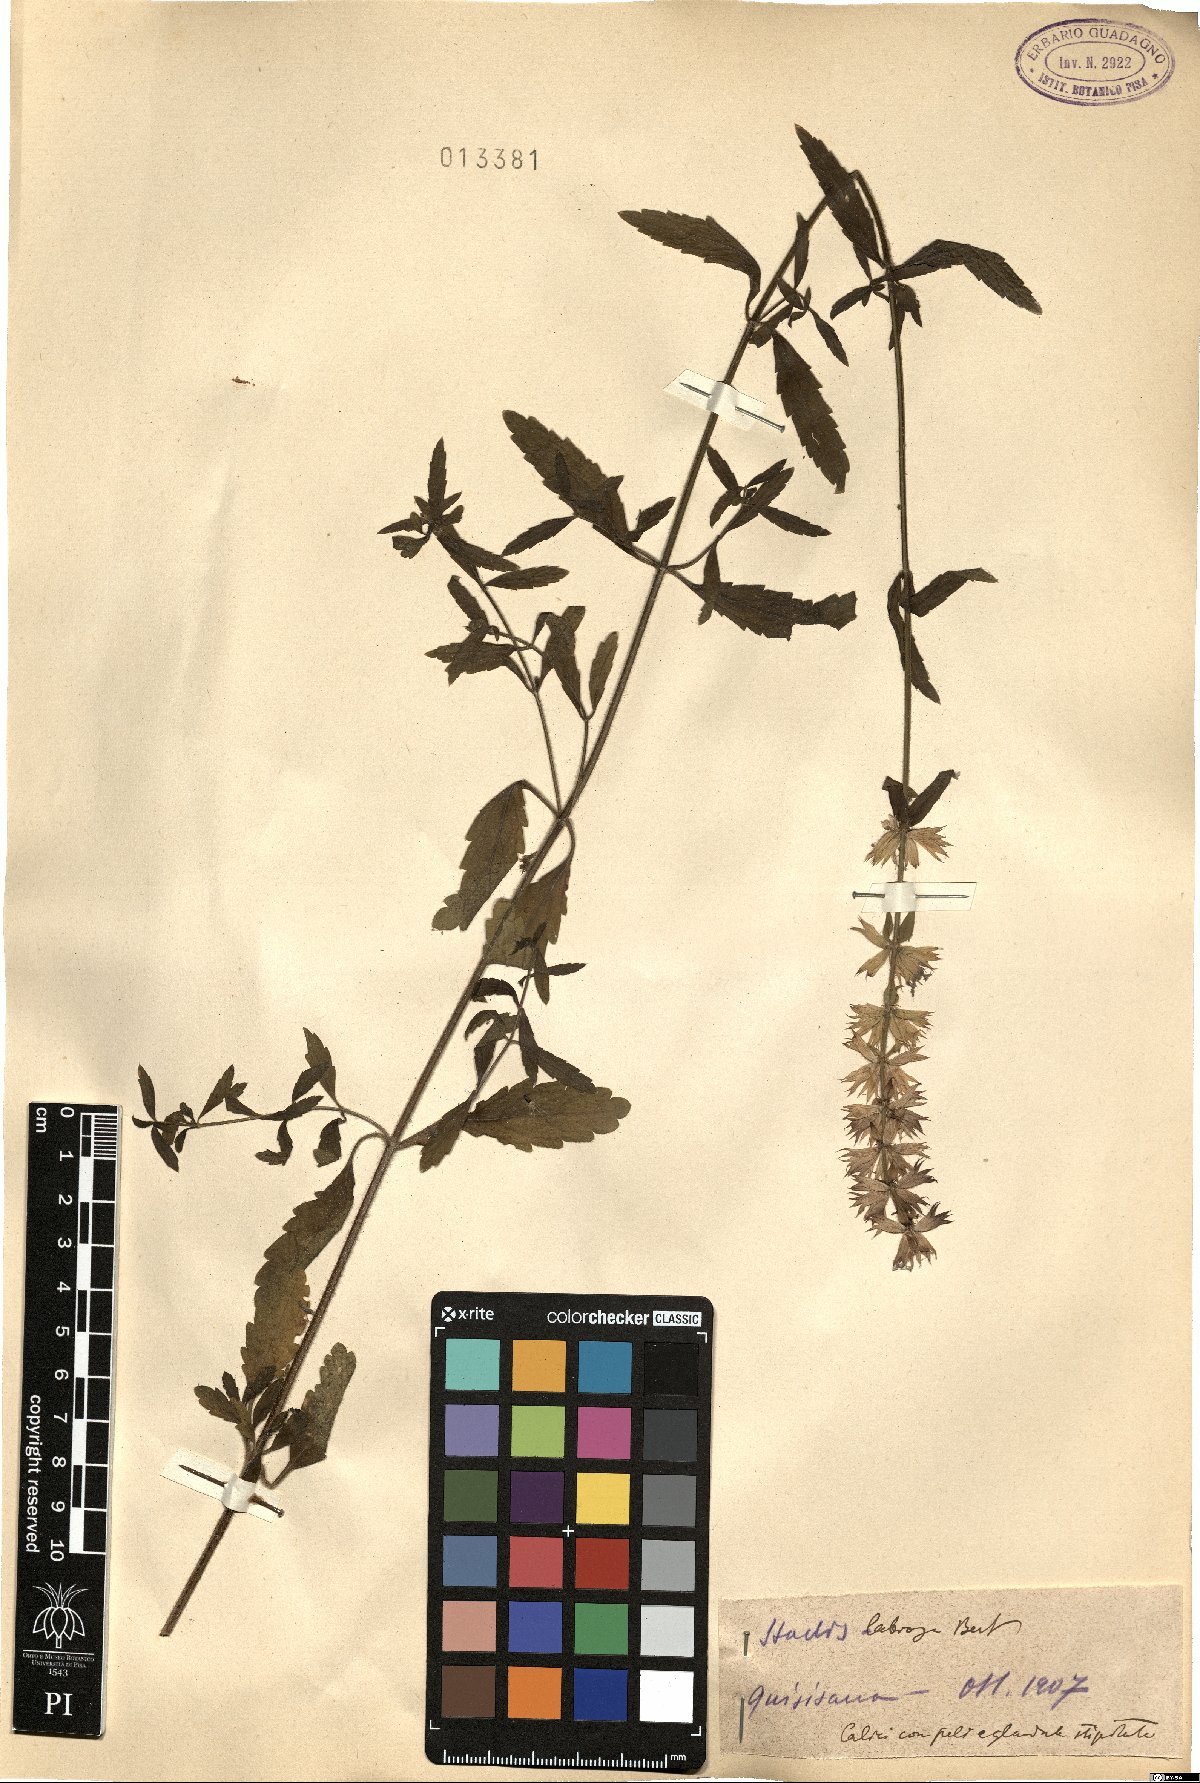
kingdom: Plantae
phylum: Tracheophyta
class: Magnoliopsida
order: Lamiales
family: Lamiaceae
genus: Stachys
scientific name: Stachys recta
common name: Perennial yellow-woundwort
